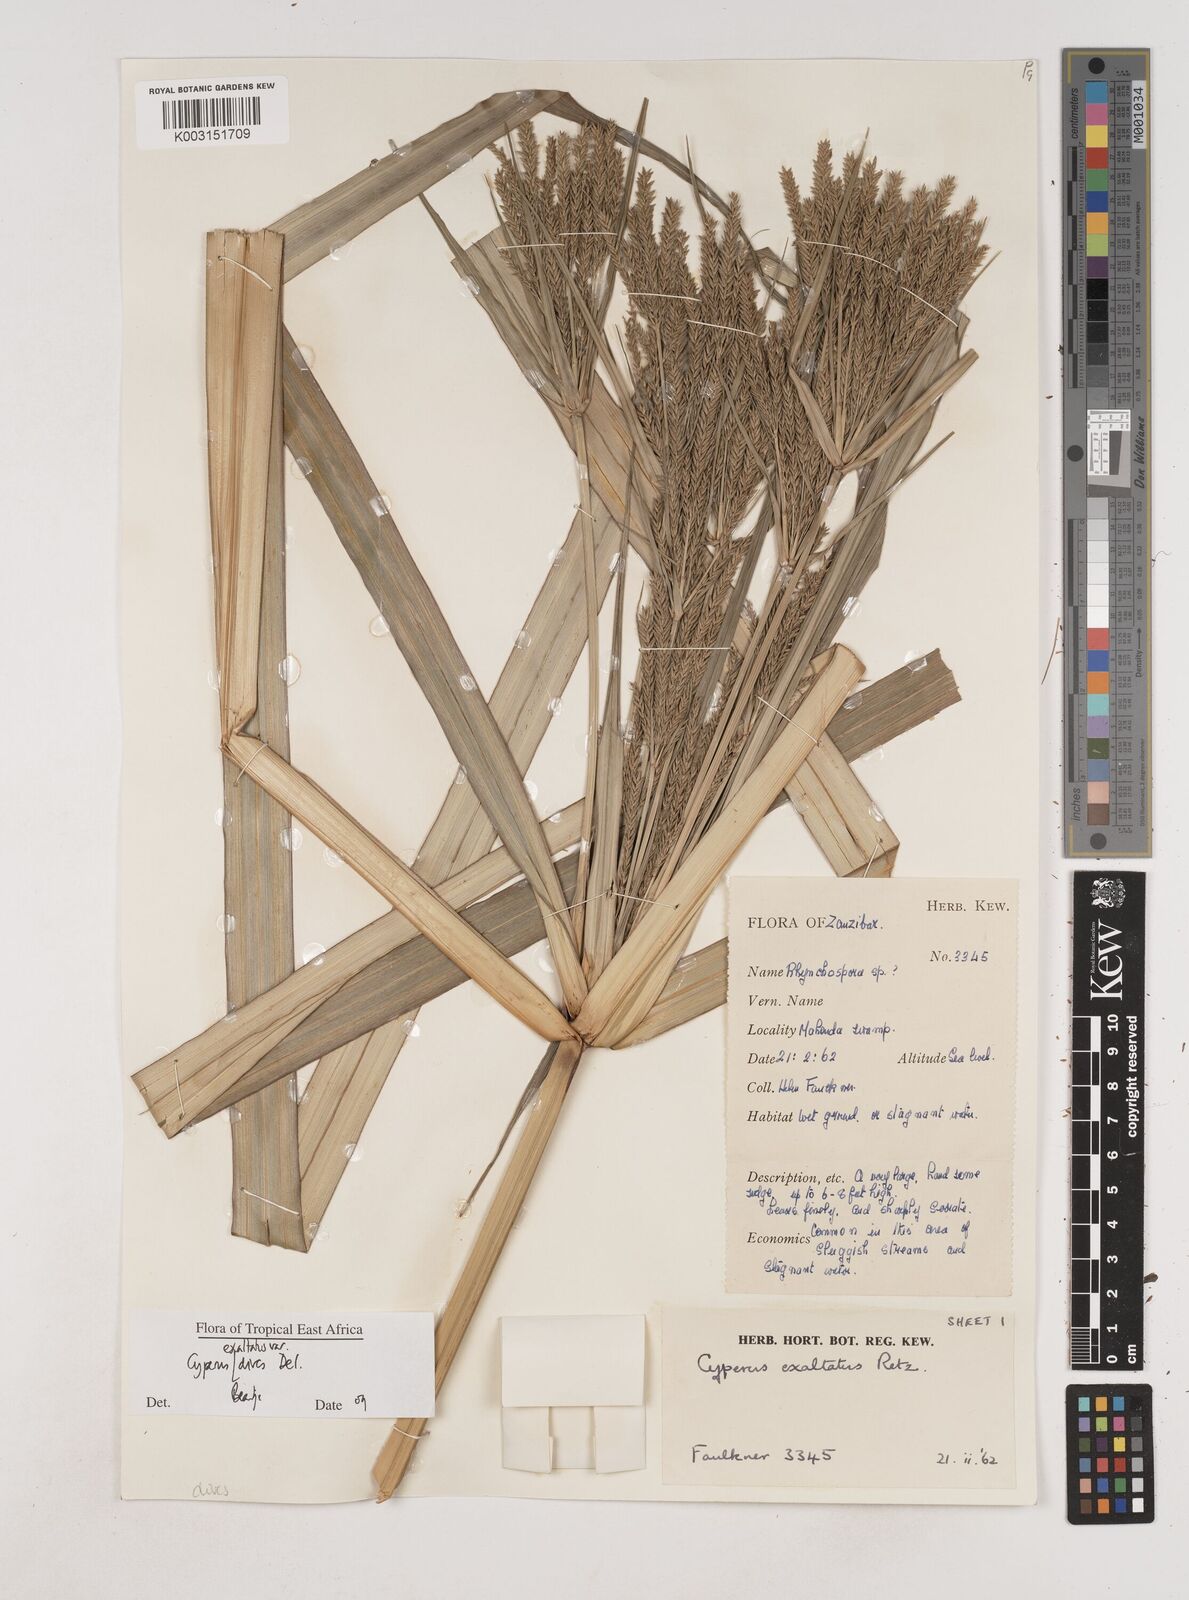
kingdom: Plantae
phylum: Tracheophyta
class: Liliopsida
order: Poales
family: Cyperaceae
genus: Cyperus
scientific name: Cyperus exaltatus
